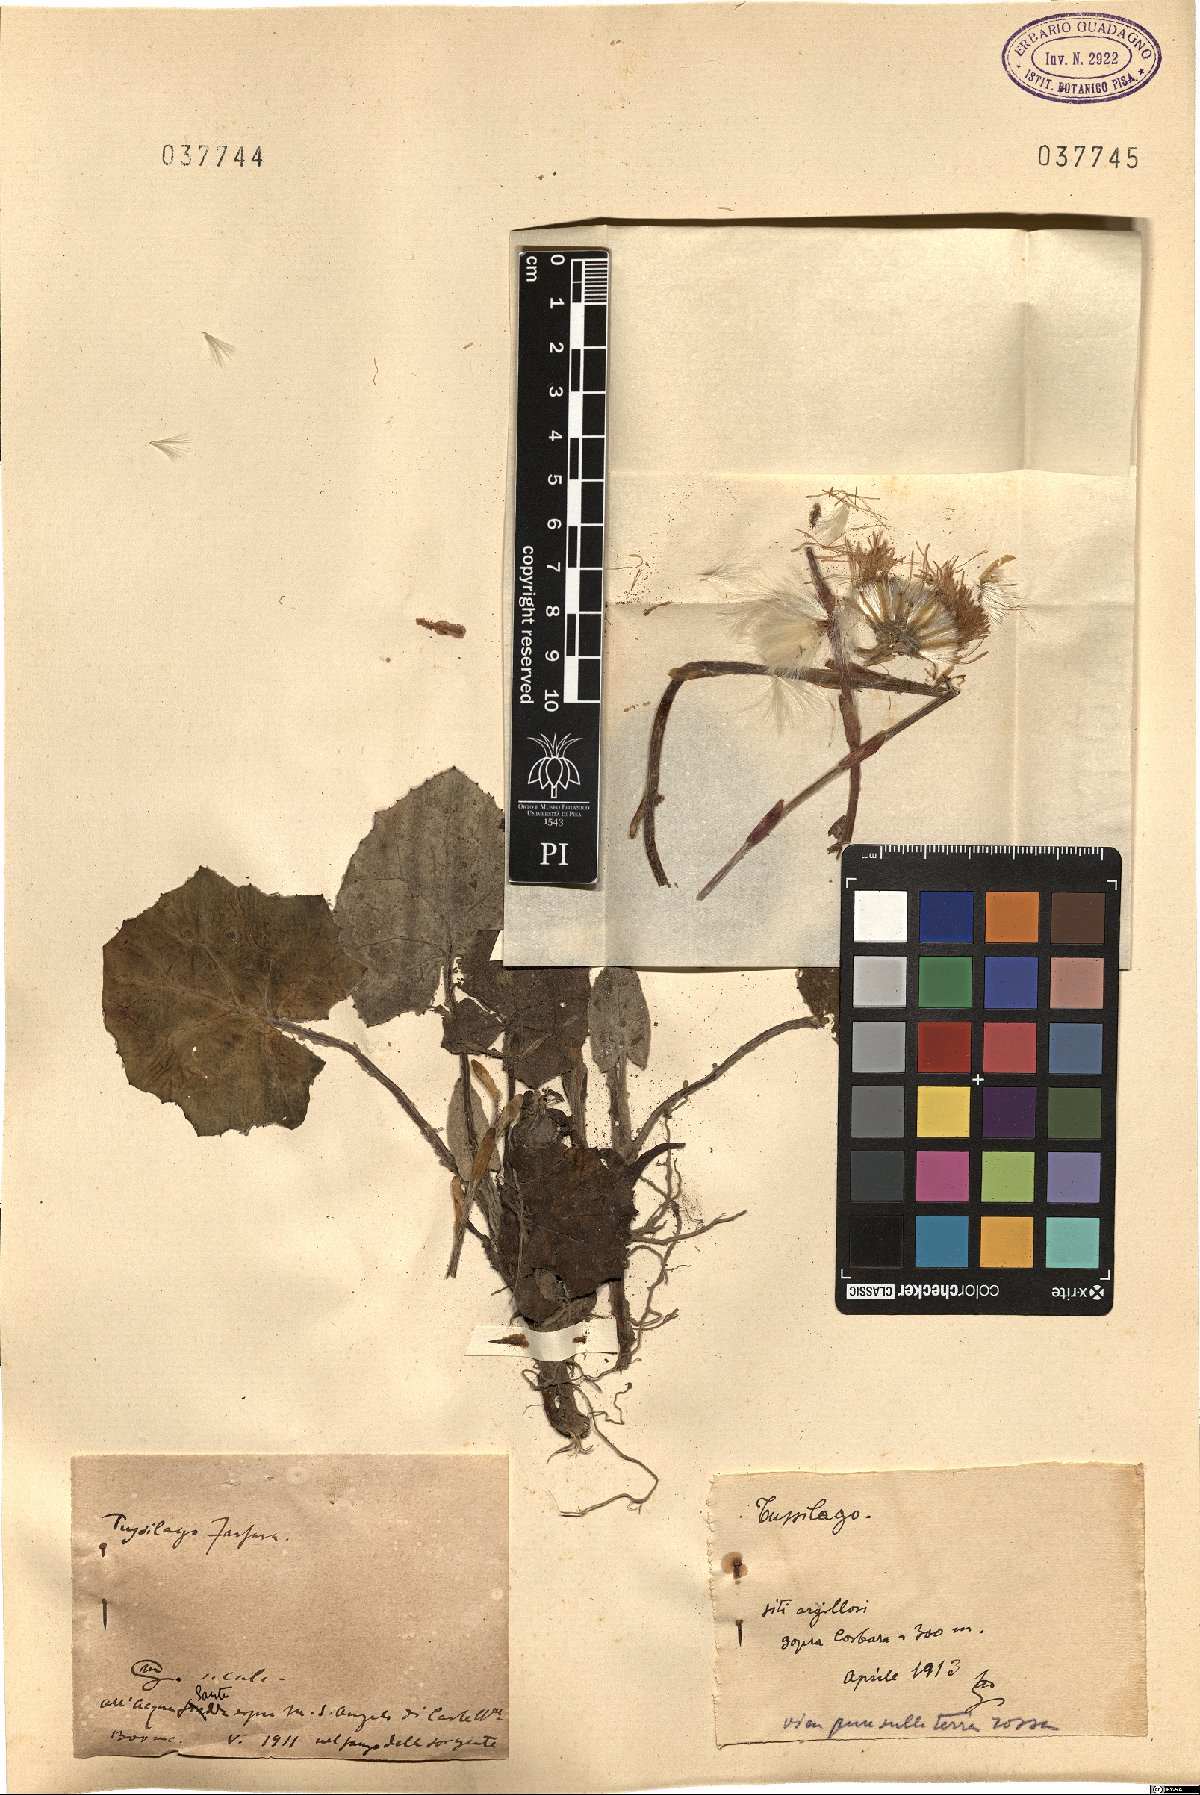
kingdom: Plantae
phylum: Tracheophyta
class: Magnoliopsida
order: Asterales
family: Asteraceae
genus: Tussilago
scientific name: Tussilago
